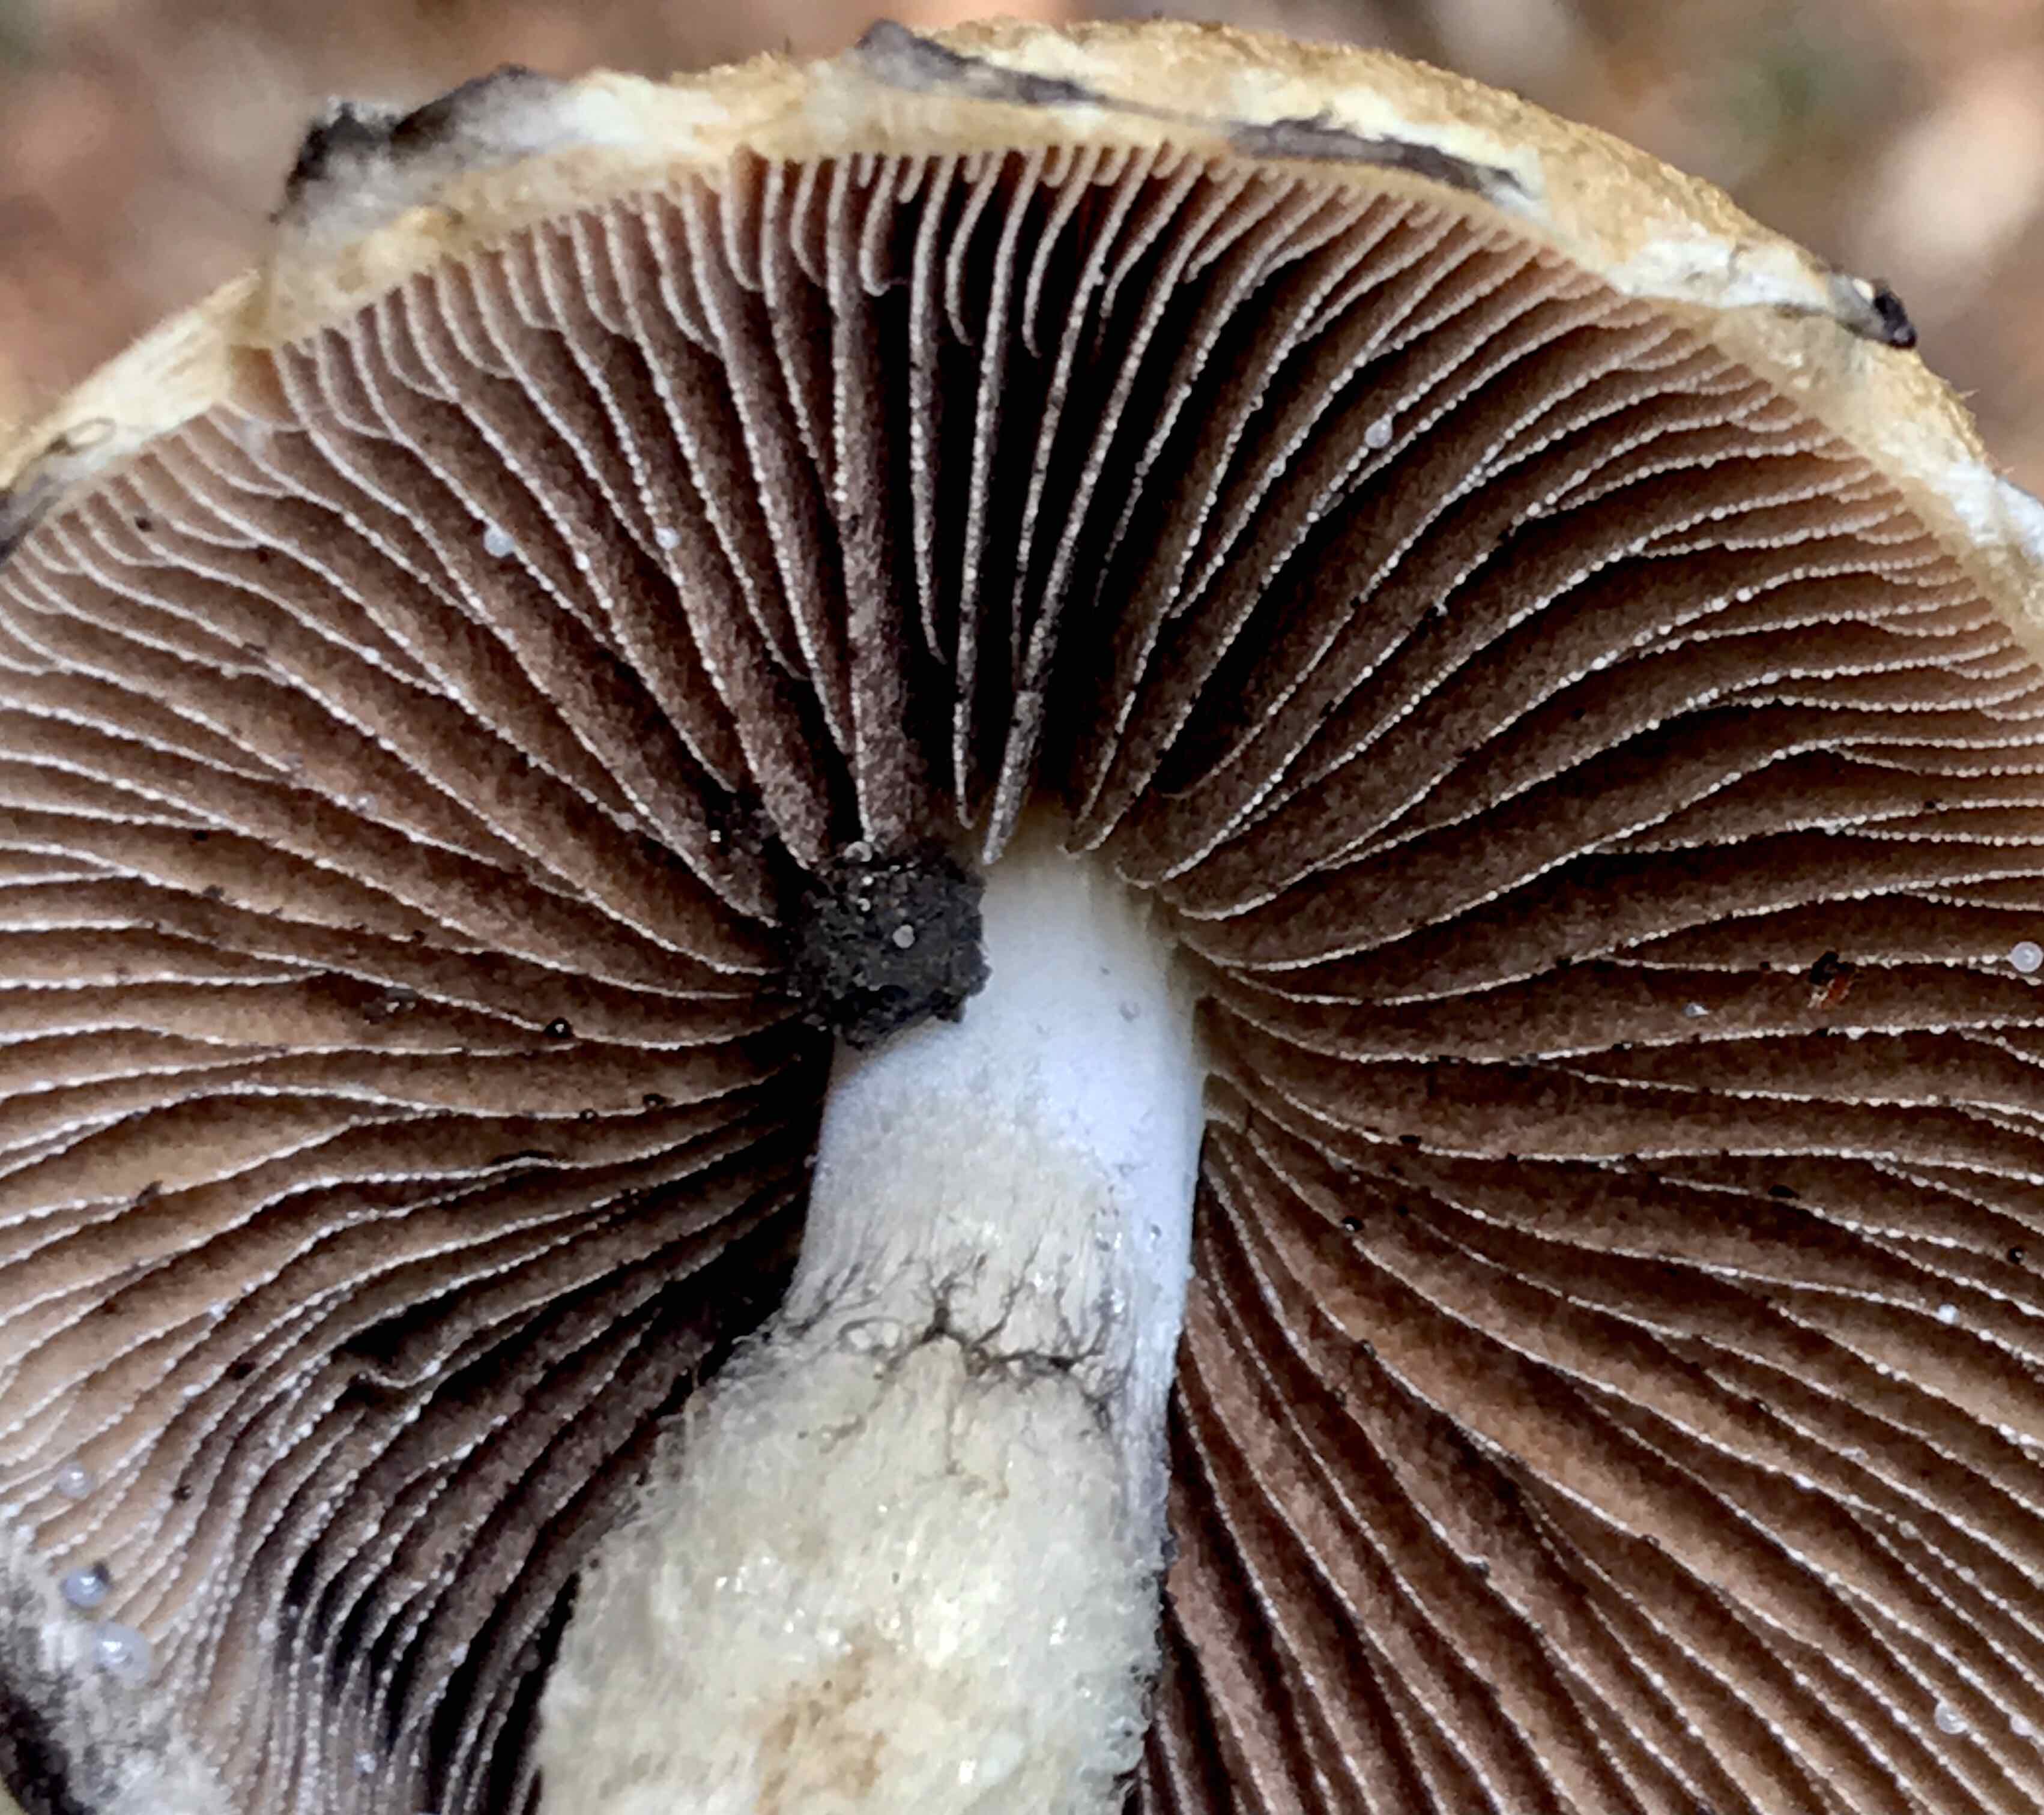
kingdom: Fungi
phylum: Basidiomycota
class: Agaricomycetes
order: Agaricales
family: Psathyrellaceae
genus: Lacrymaria
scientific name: Lacrymaria lacrymabunda
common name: grædende mørkhat
